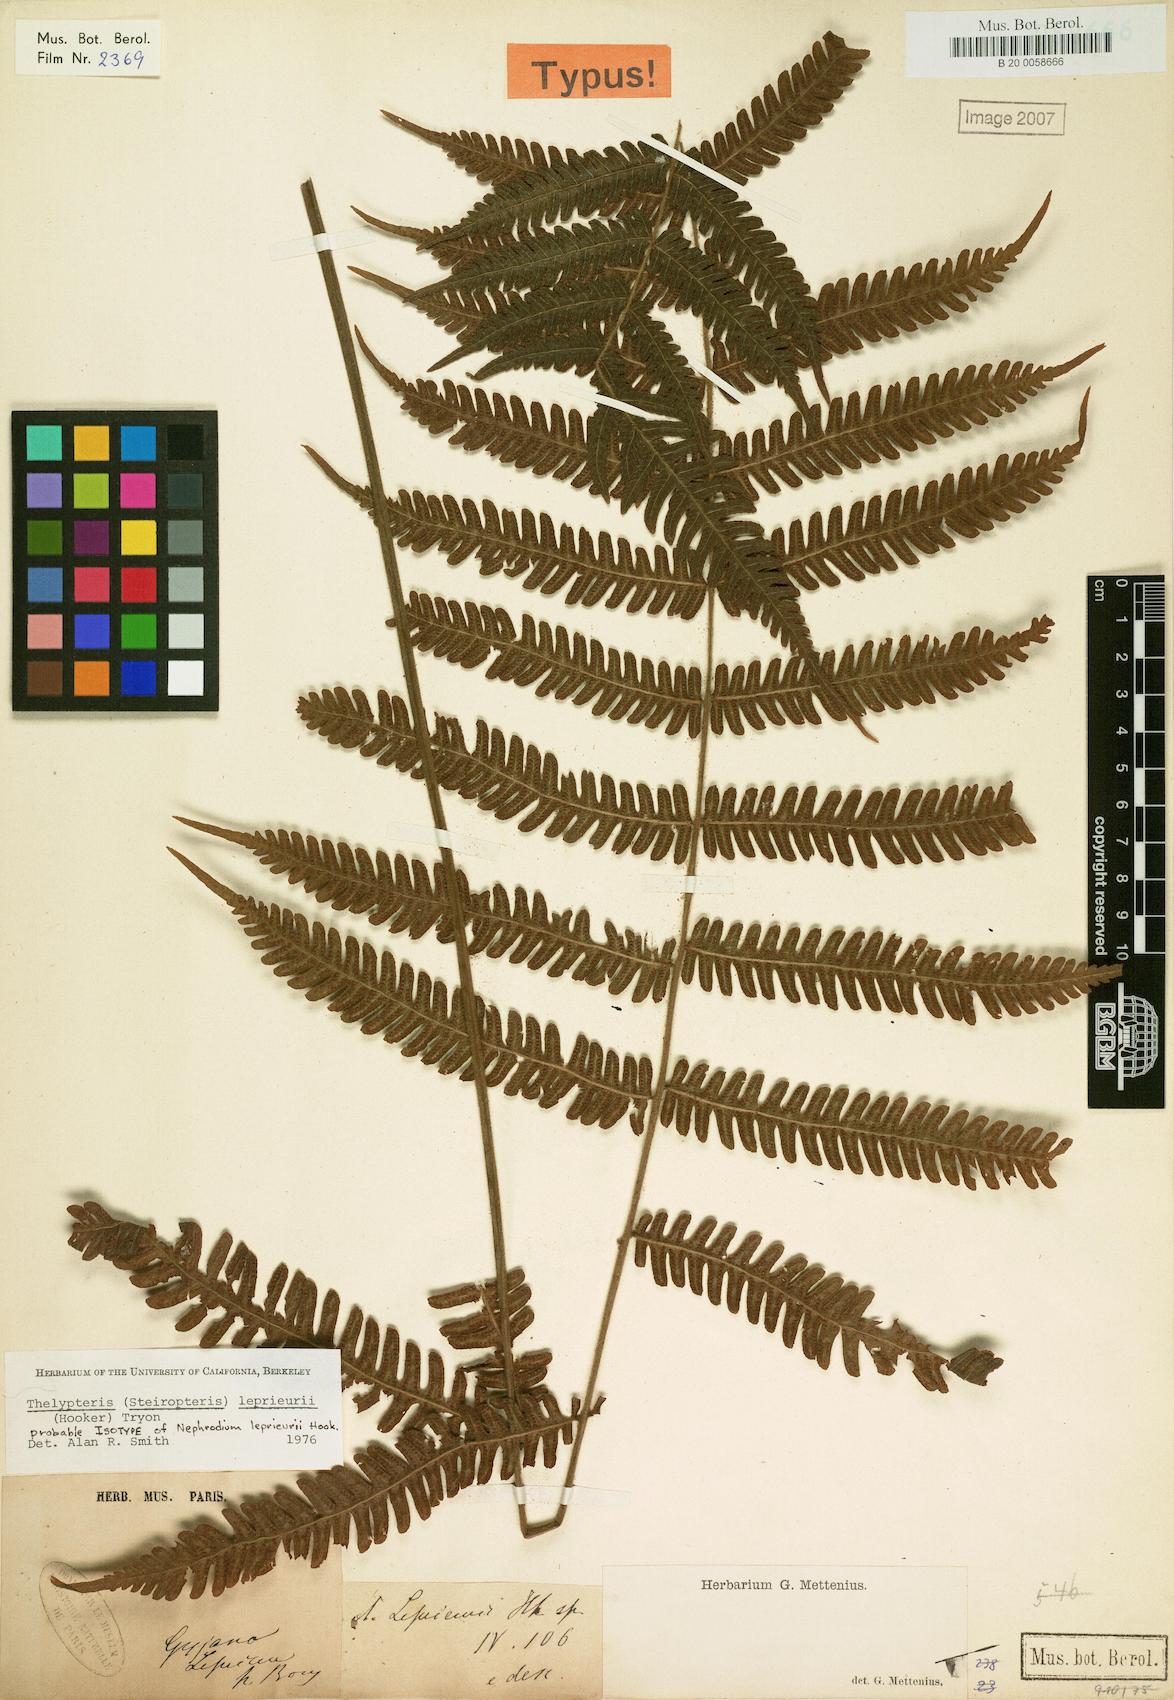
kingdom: Plantae
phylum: Tracheophyta
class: Polypodiopsida
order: Polypodiales
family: Thelypteridaceae
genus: Steiropteris
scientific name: Steiropteris leprieurii
